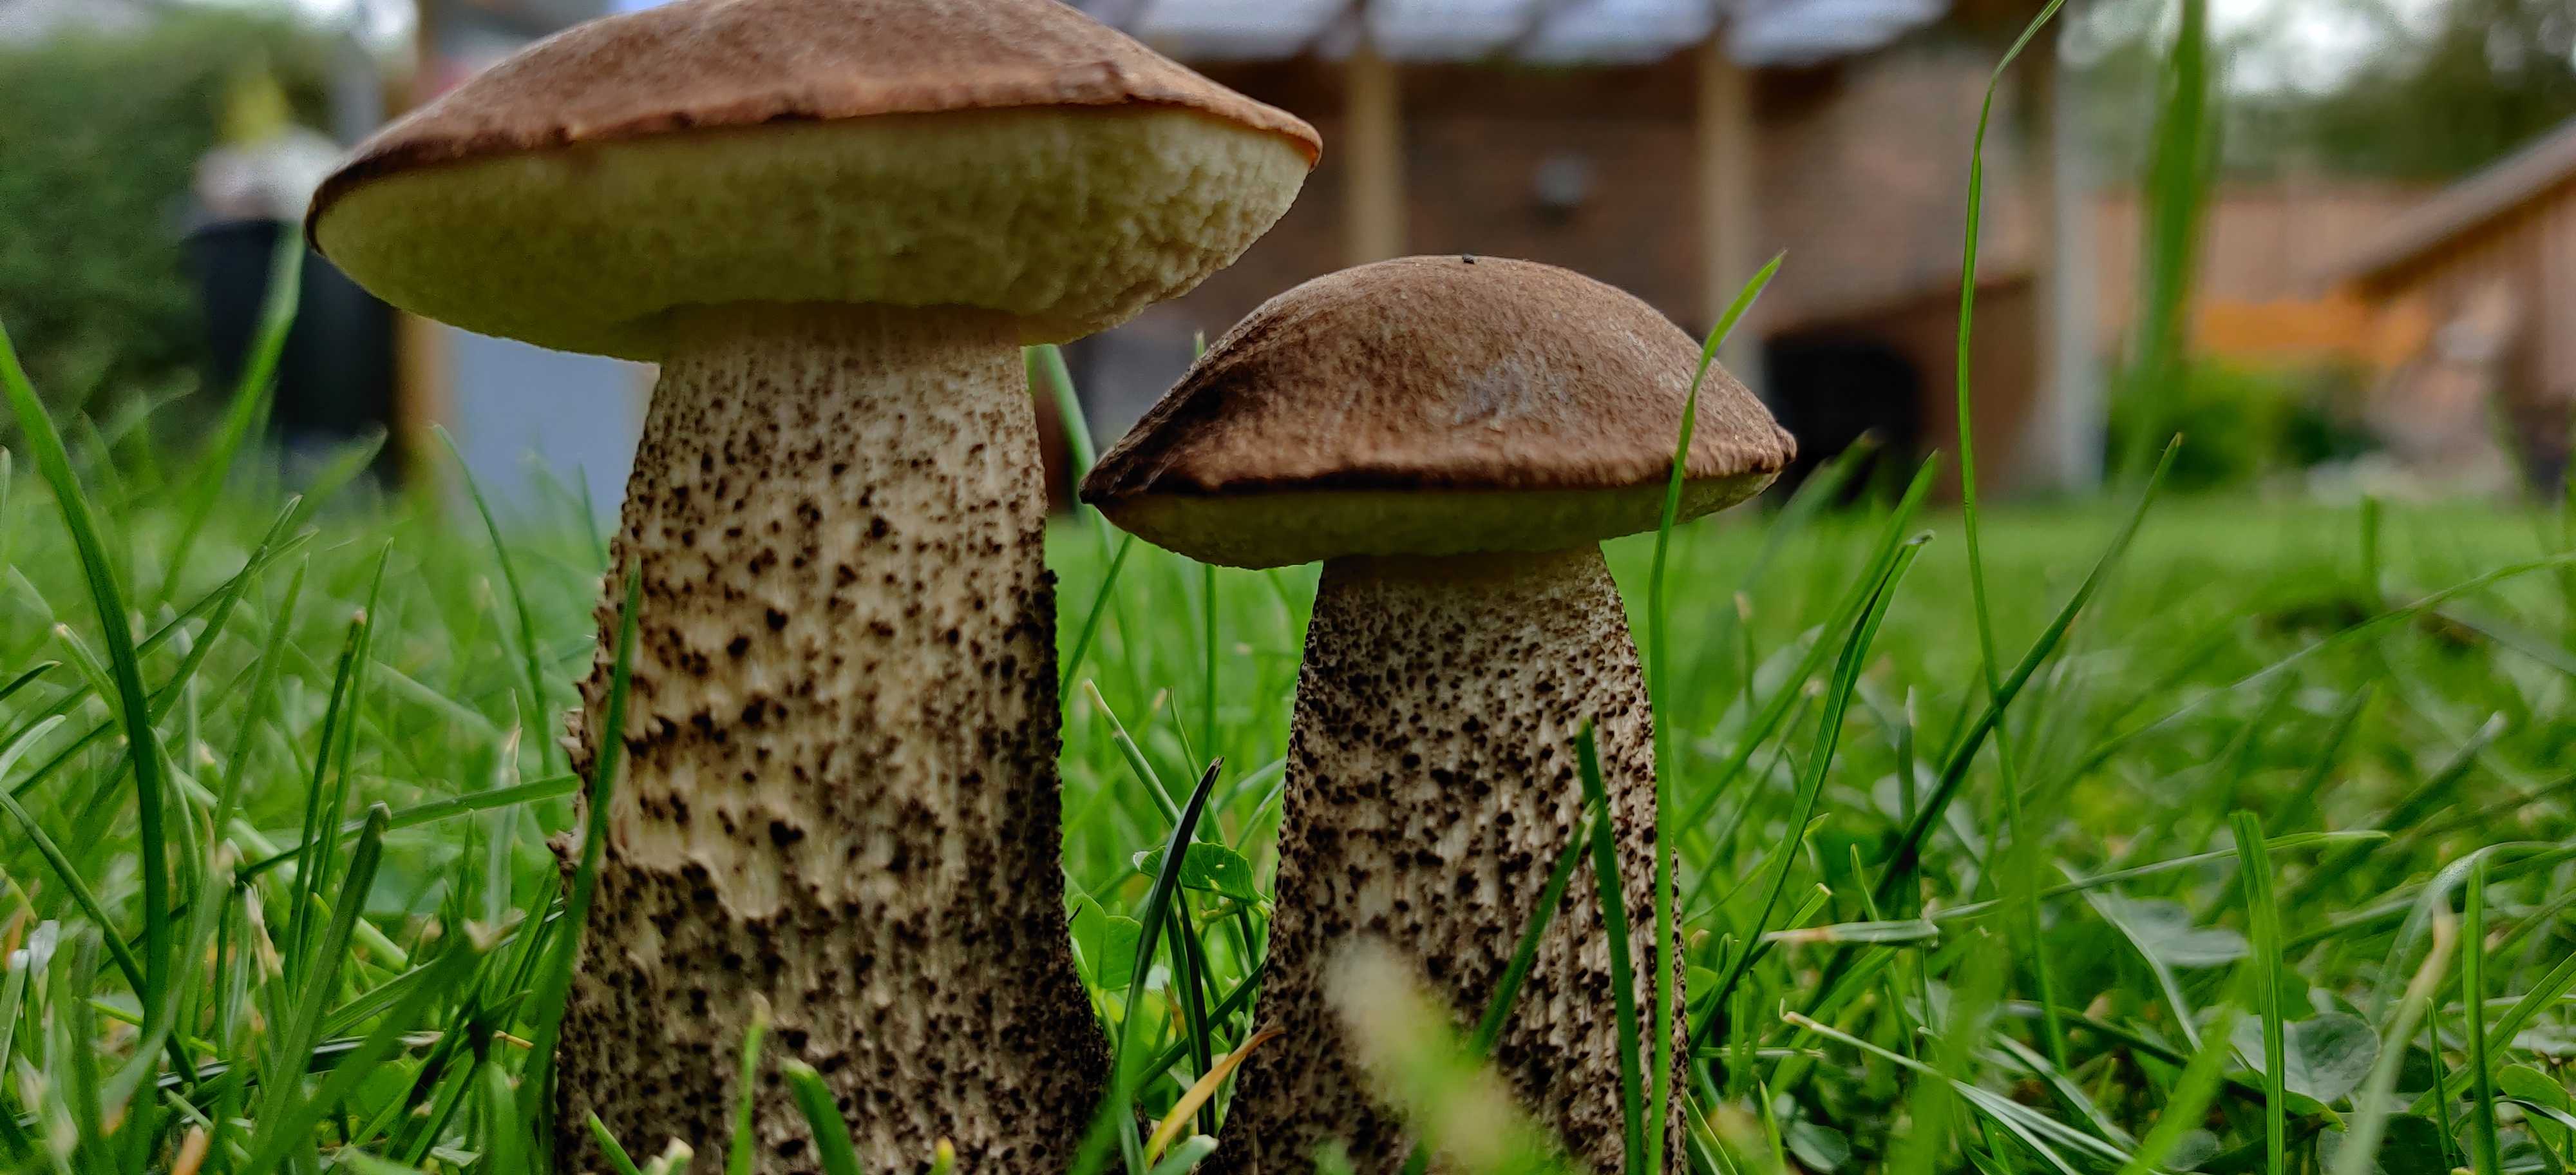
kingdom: Fungi
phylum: Basidiomycota
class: Agaricomycetes
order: Boletales
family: Boletaceae
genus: Leccinum
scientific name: Leccinum
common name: skælrørhat
